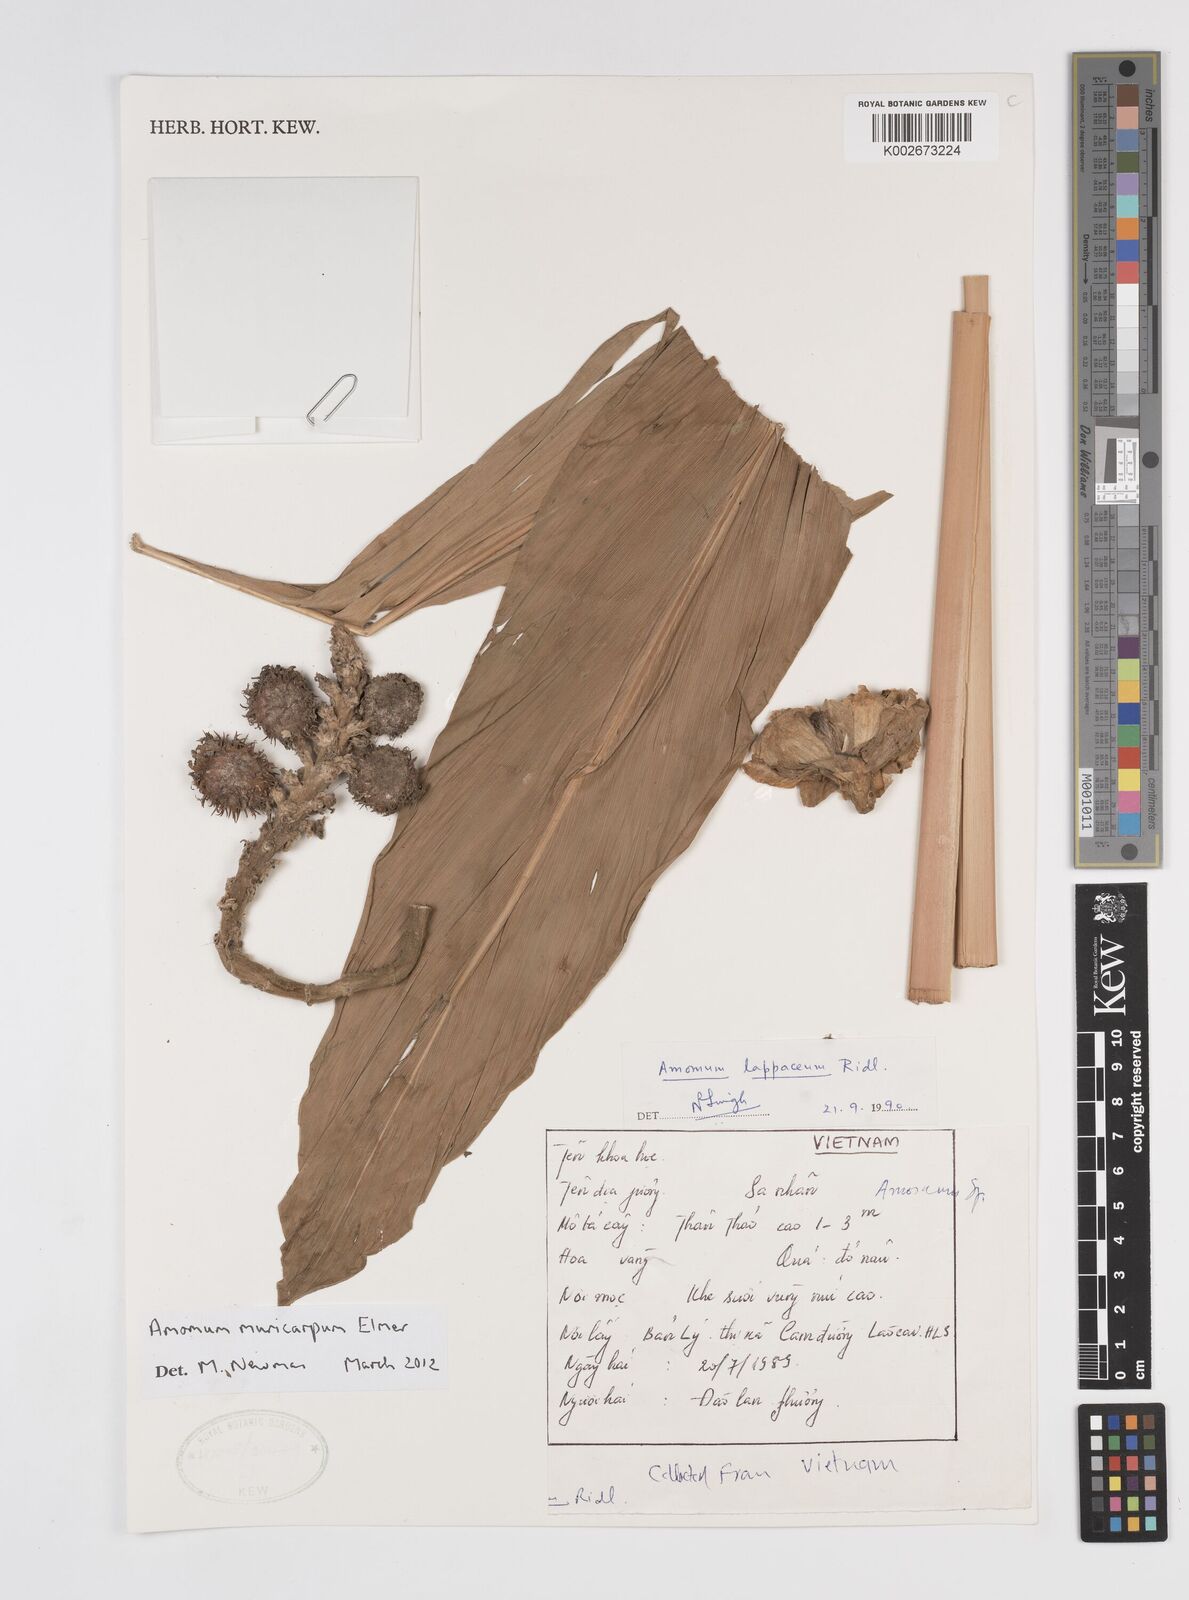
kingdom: Plantae
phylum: Tracheophyta
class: Liliopsida
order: Zingiberales
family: Zingiberaceae
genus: Meistera
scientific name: Meistera muricarpa
